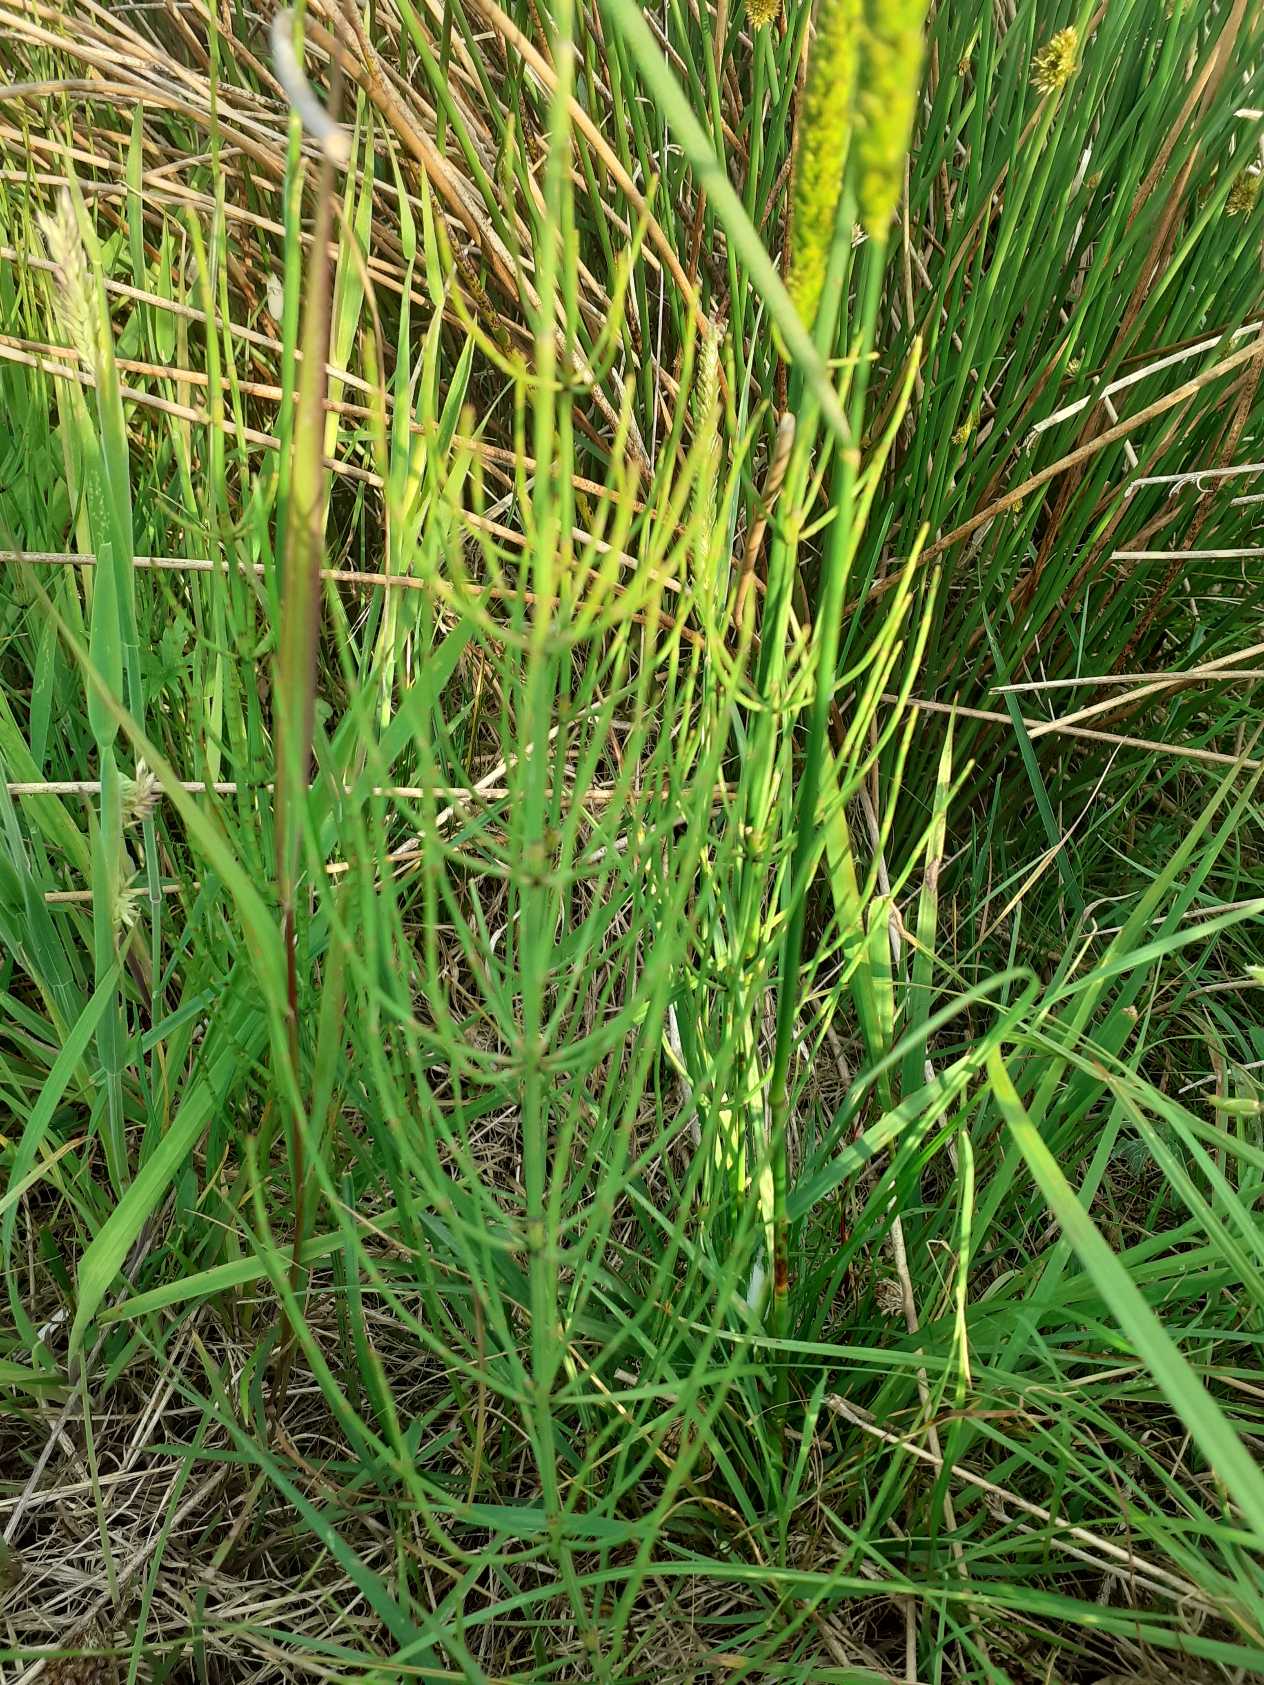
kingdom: Plantae
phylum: Tracheophyta
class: Polypodiopsida
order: Equisetales
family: Equisetaceae
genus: Equisetum
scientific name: Equisetum palustre
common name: Kær-padderok
